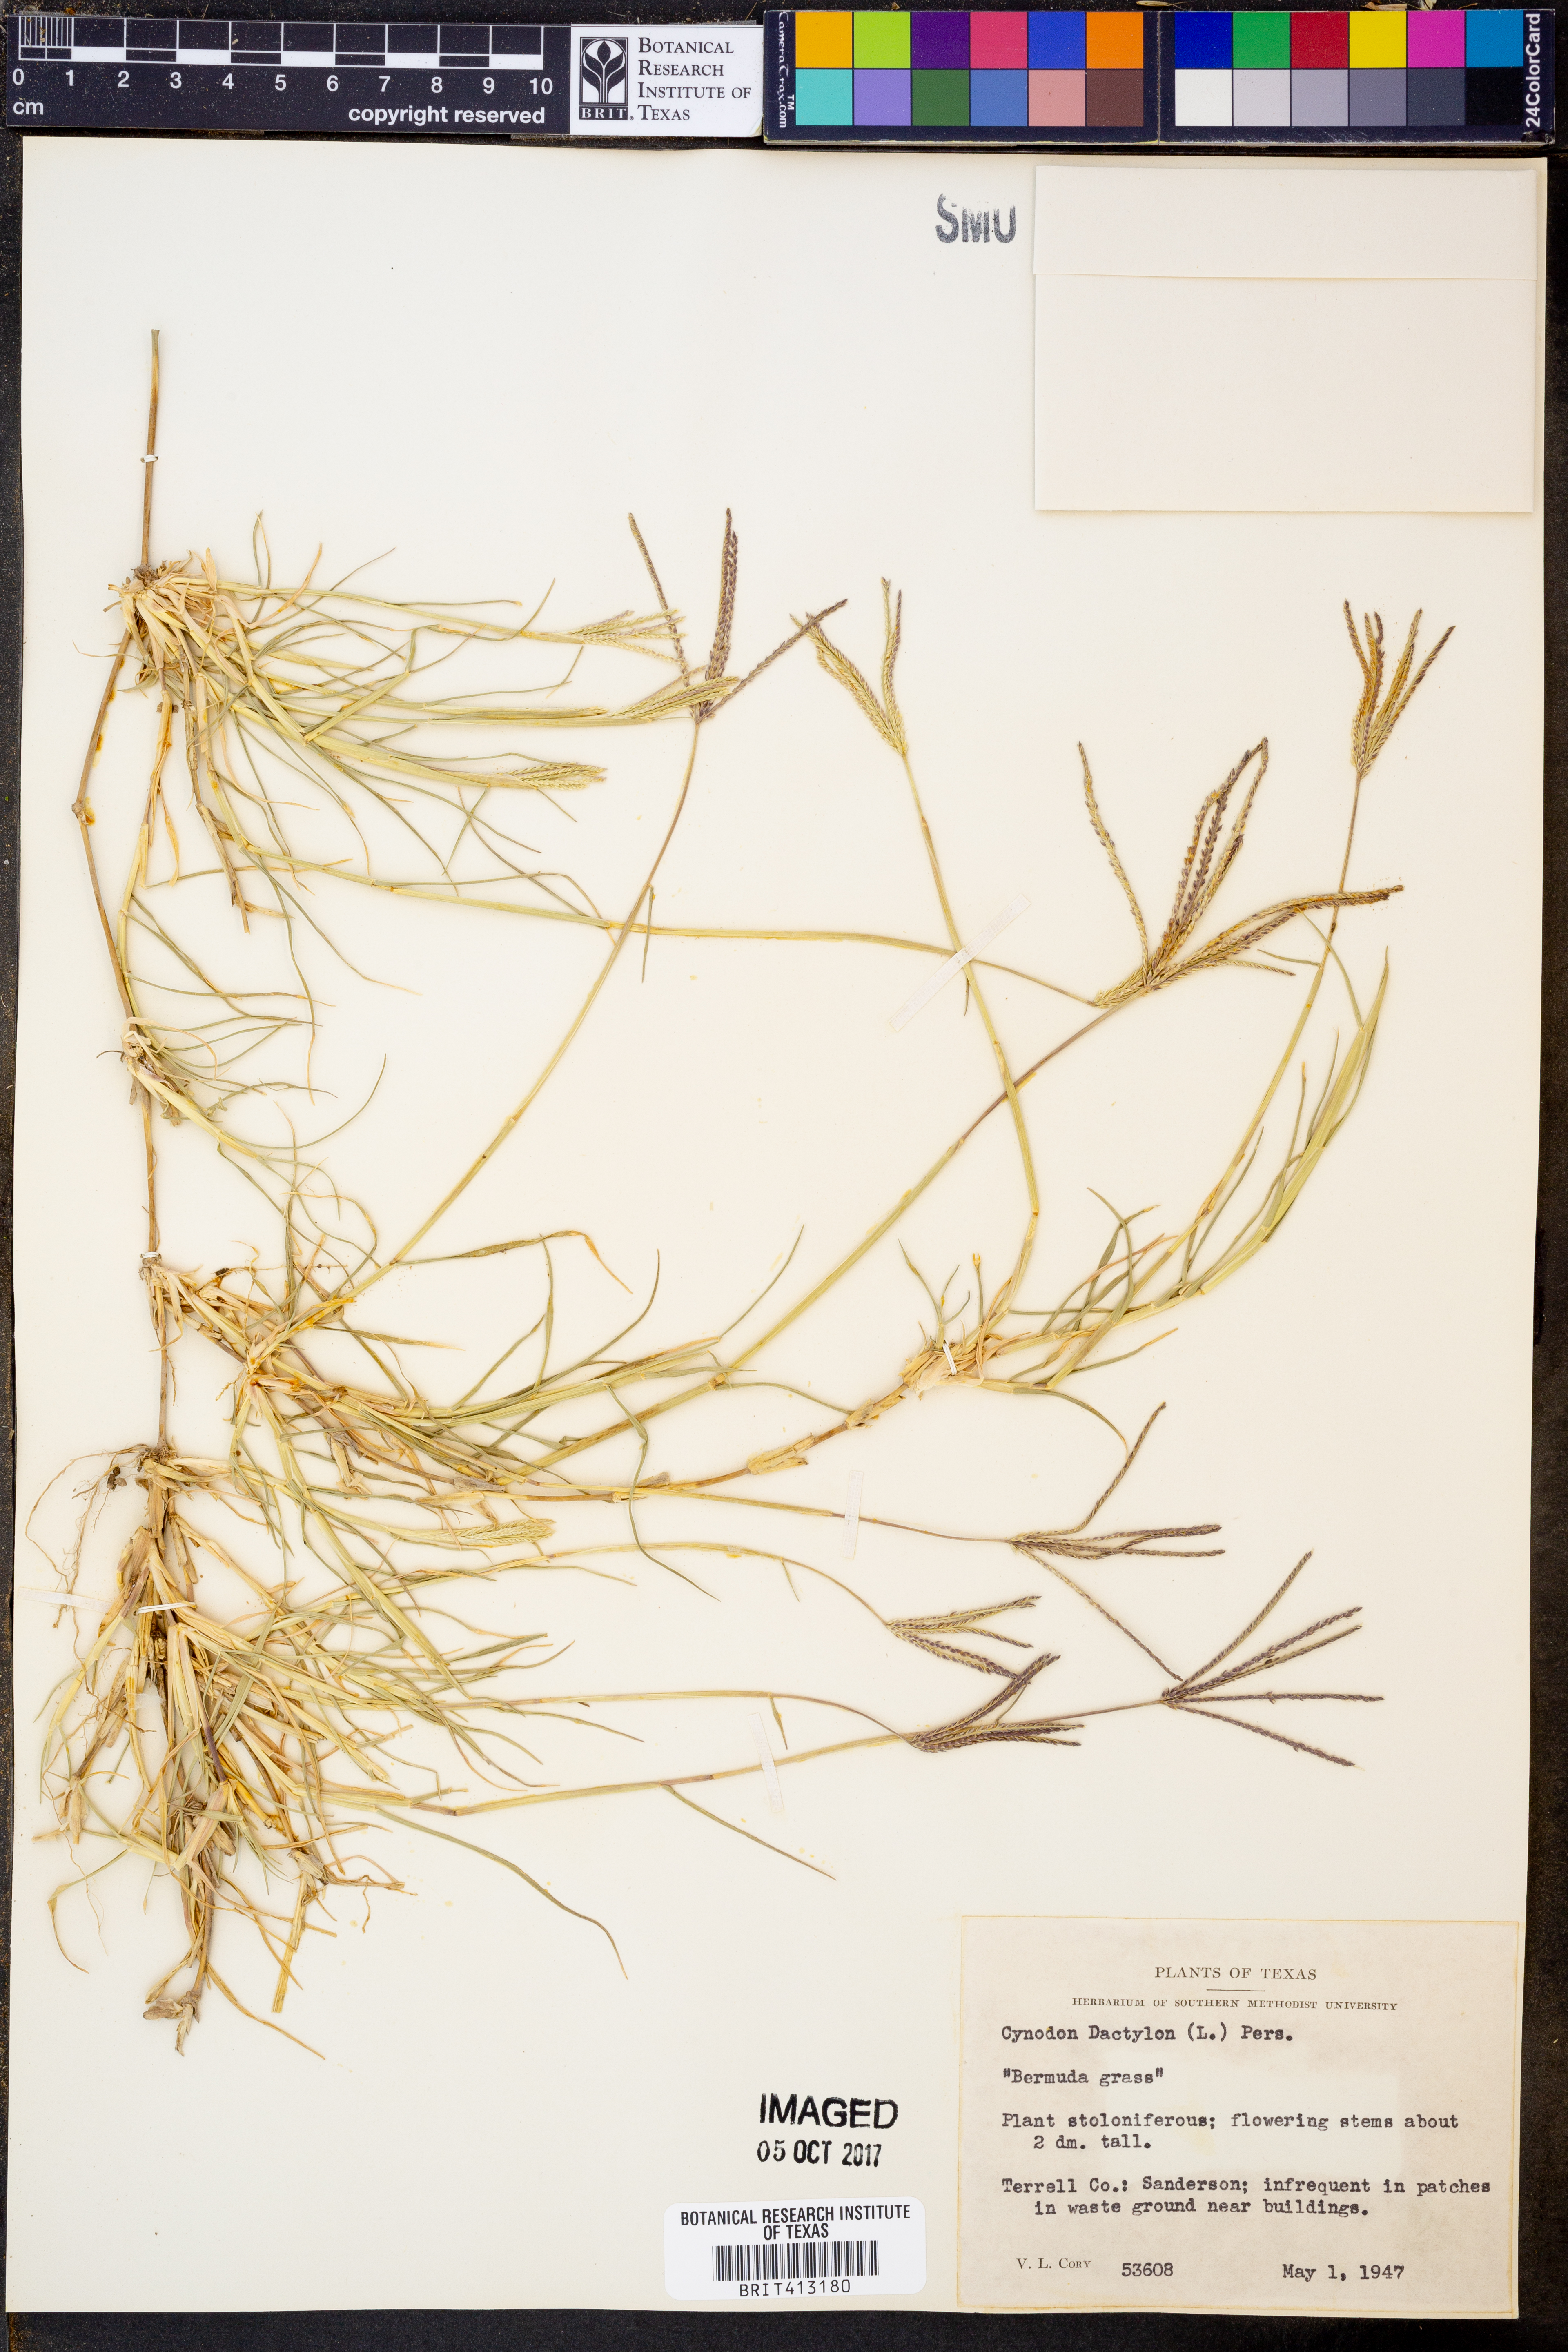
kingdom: Plantae
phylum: Tracheophyta
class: Liliopsida
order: Poales
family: Poaceae
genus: Cynodon
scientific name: Cynodon dactylon
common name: Bermuda grass
